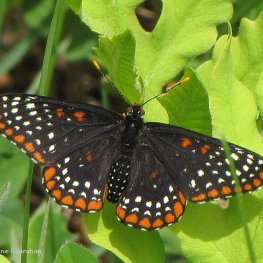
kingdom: Animalia
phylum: Arthropoda
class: Insecta
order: Lepidoptera
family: Nymphalidae
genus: Euphydryas
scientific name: Euphydryas phaeton
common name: Baltimore Checkerspot
